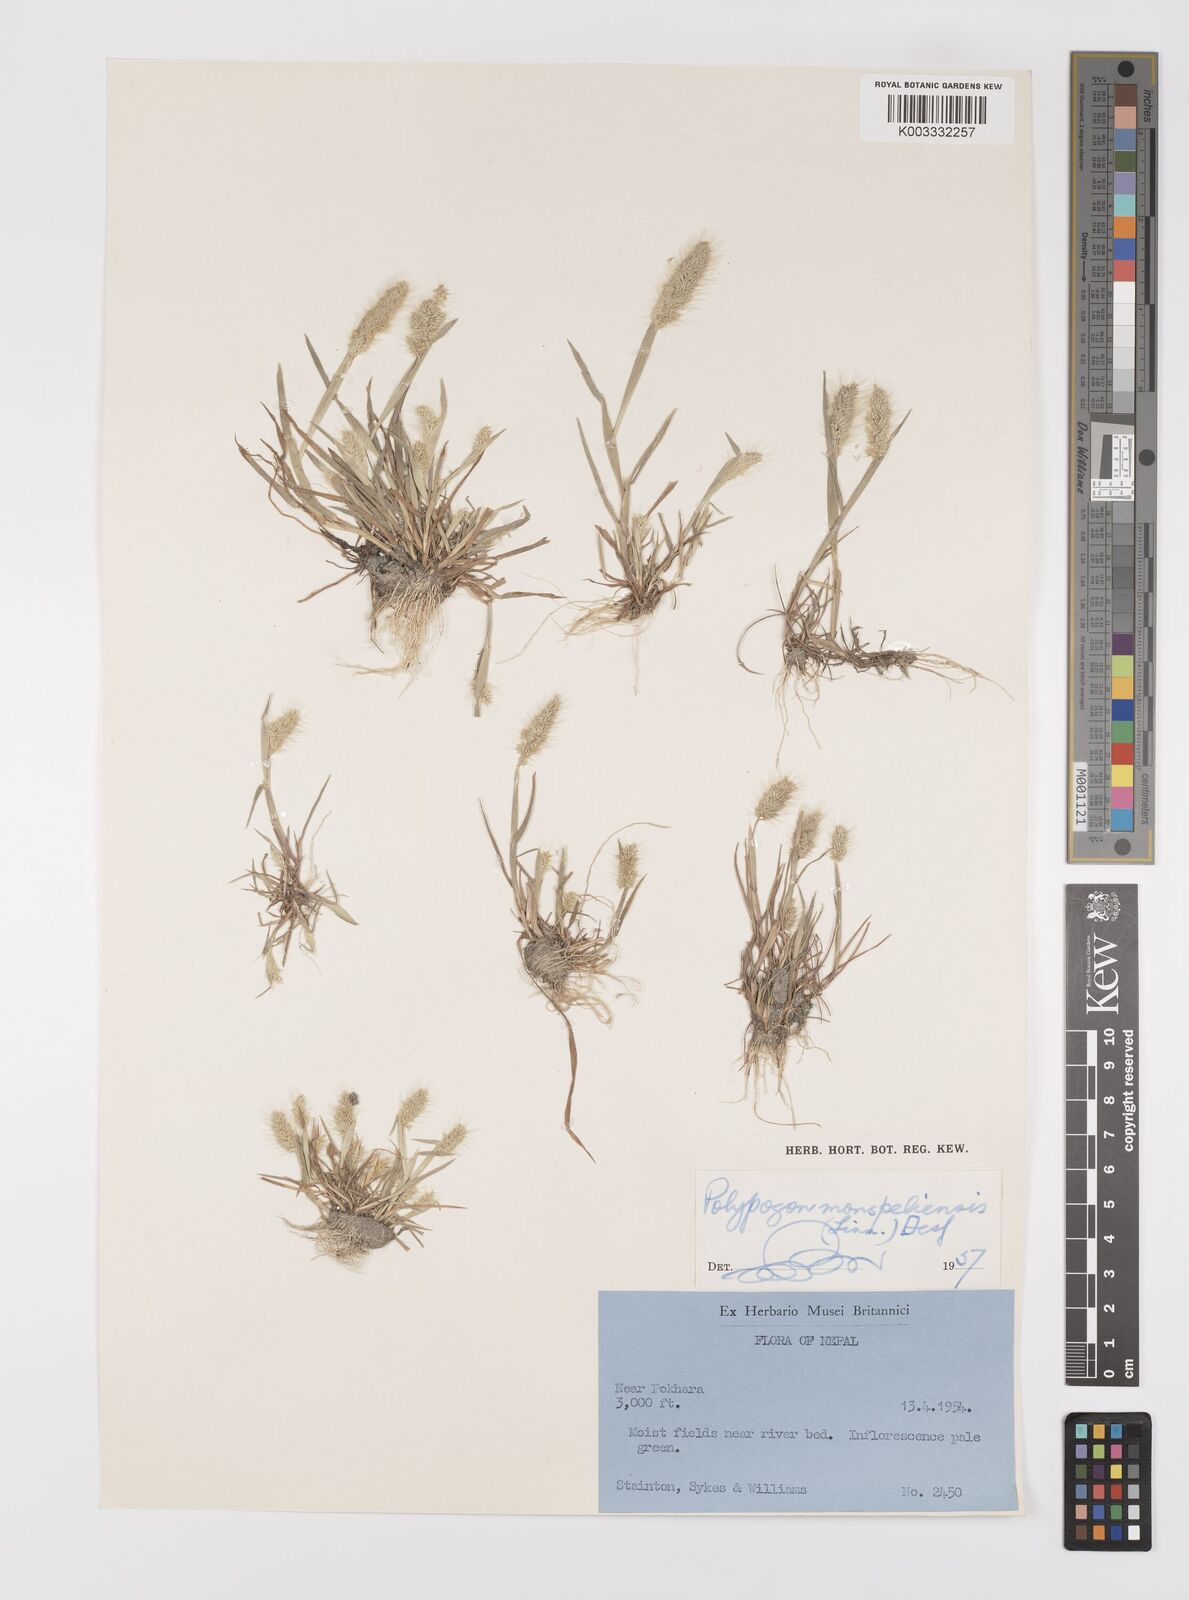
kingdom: Plantae
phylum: Tracheophyta
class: Liliopsida
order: Poales
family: Poaceae
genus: Polypogon
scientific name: Polypogon monspeliensis
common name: Annual rabbitsfoot grass
